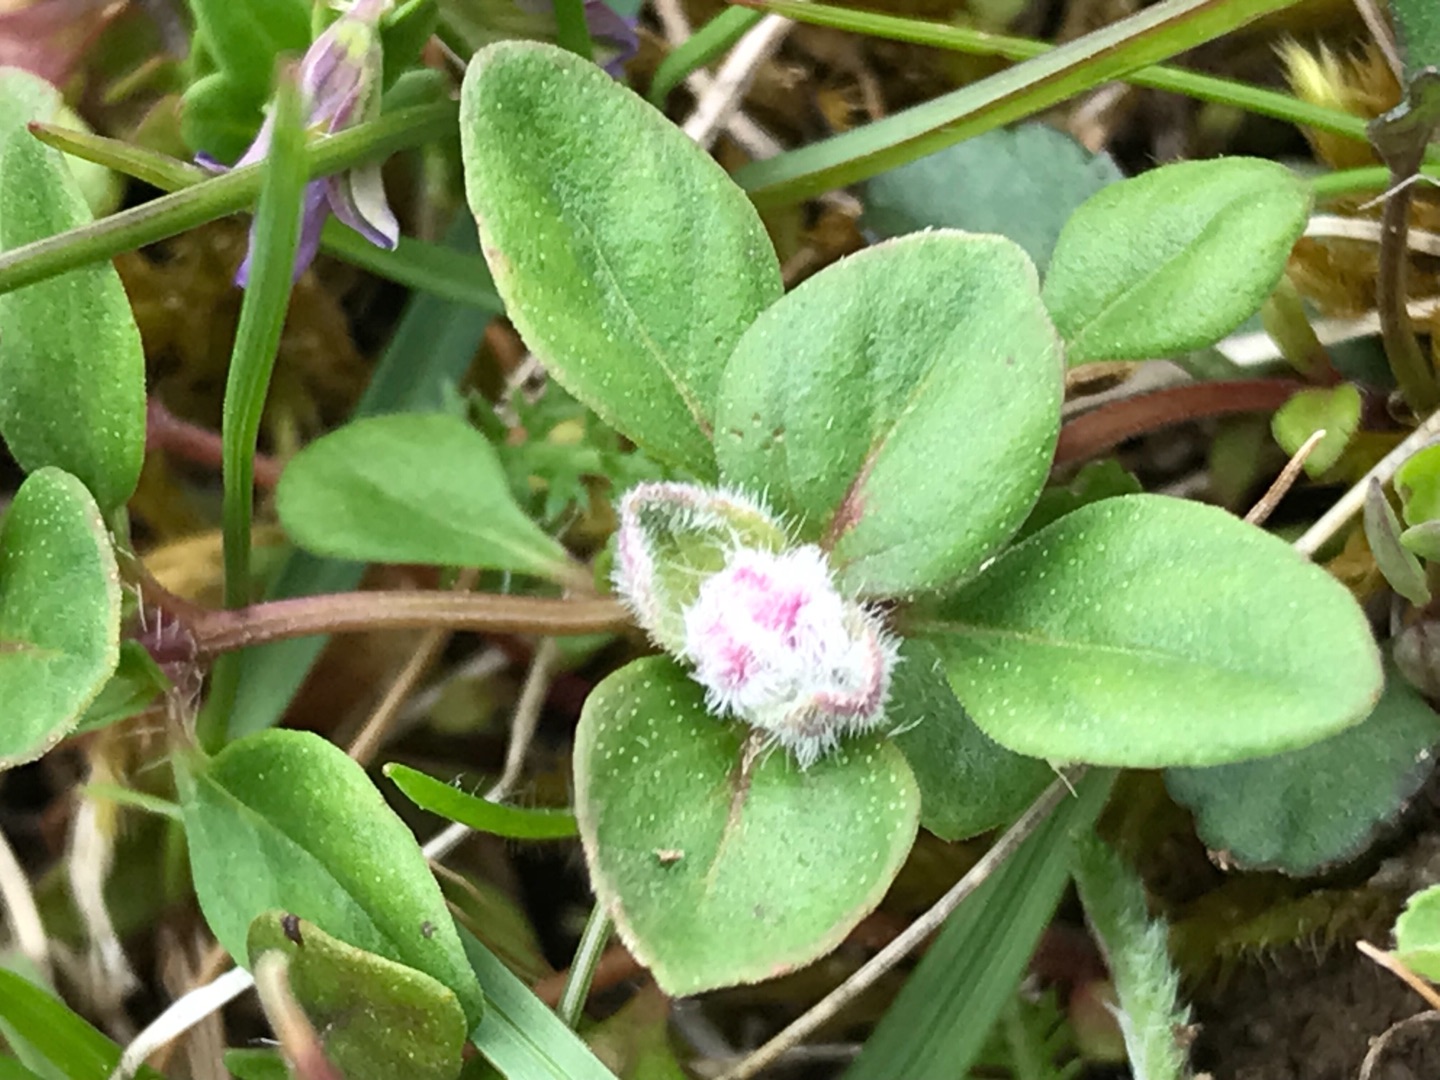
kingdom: Plantae
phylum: Tracheophyta
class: Magnoliopsida
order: Lamiales
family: Lamiaceae
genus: Thymus
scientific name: Thymus pulegioides
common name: Bredbladet timian
